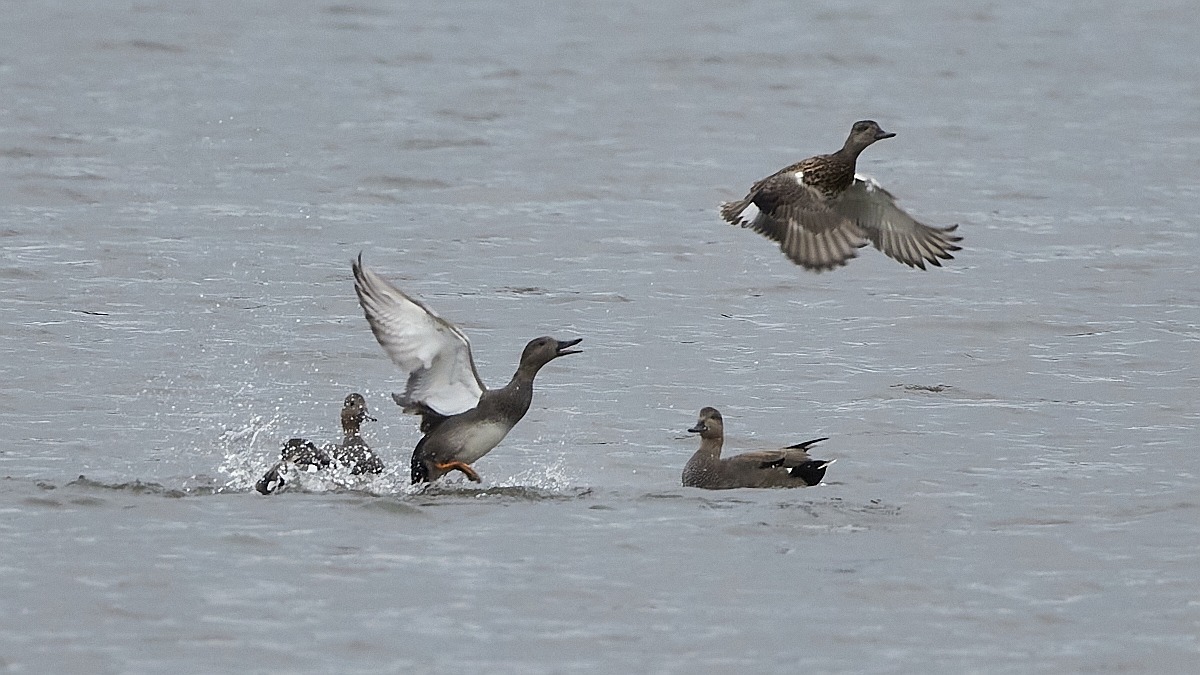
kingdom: Animalia
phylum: Chordata
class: Aves
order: Anseriformes
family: Anatidae
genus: Mareca
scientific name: Mareca strepera
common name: Knarand
